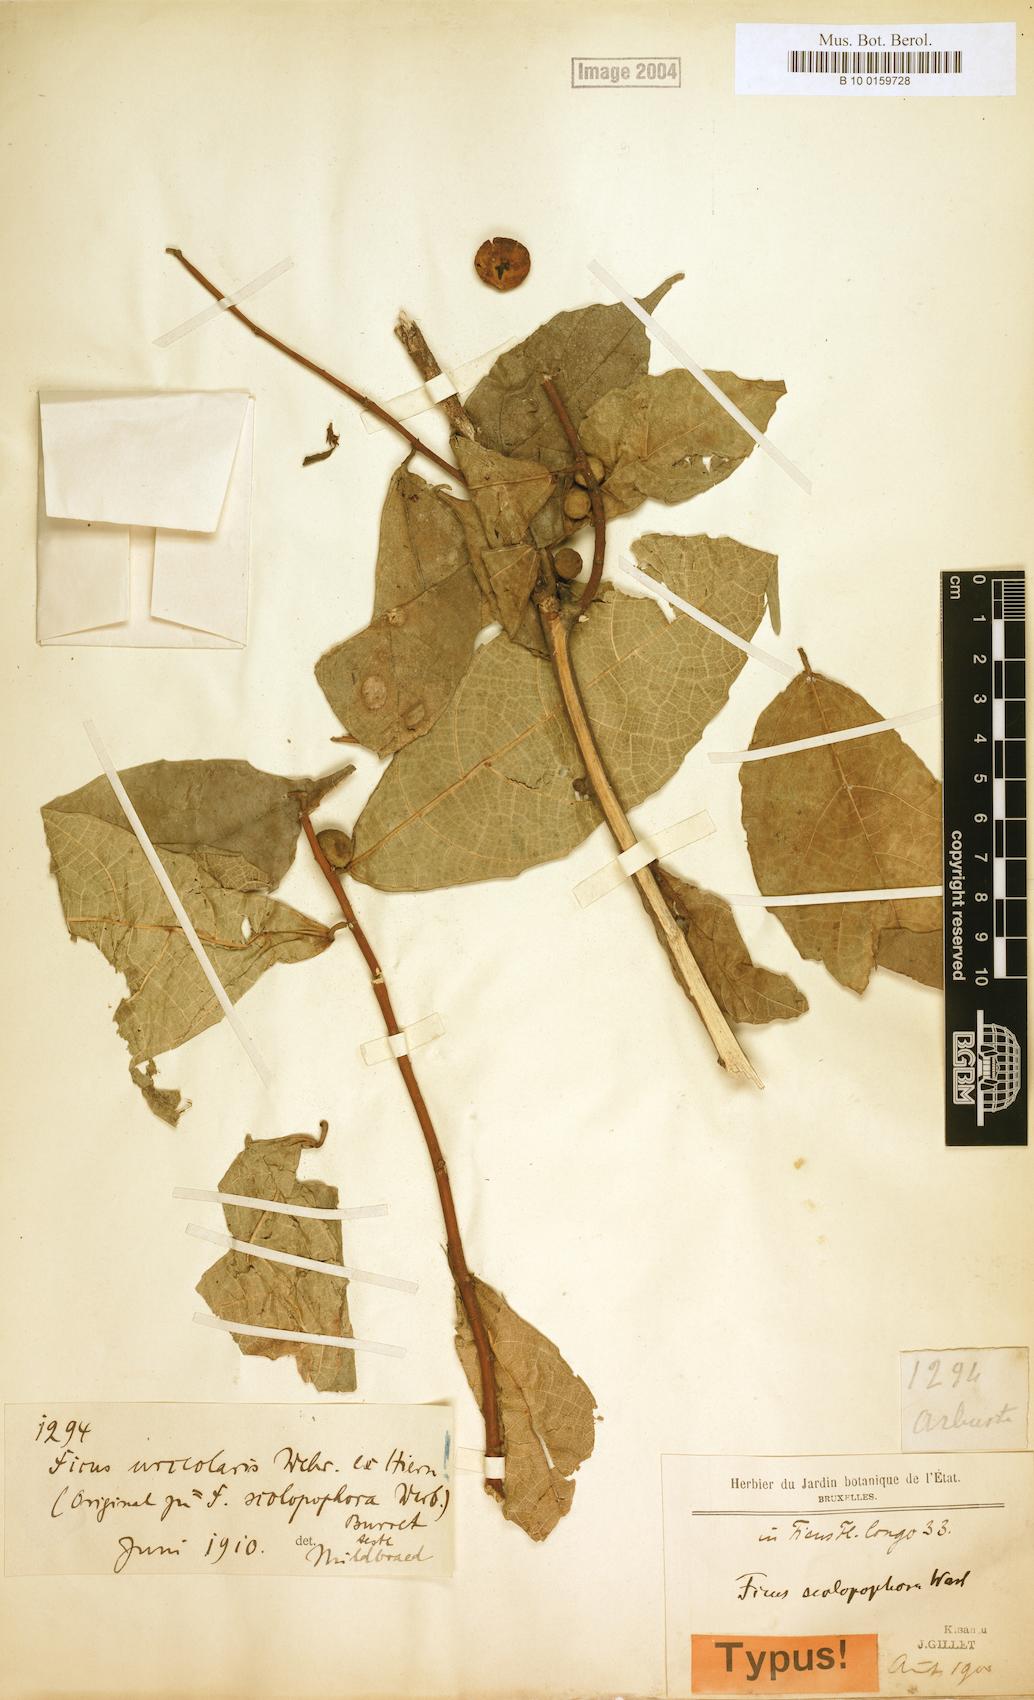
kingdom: Plantae
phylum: Tracheophyta
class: Magnoliopsida
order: Rosales
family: Moraceae
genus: Ficus
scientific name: Ficus asperifolia
